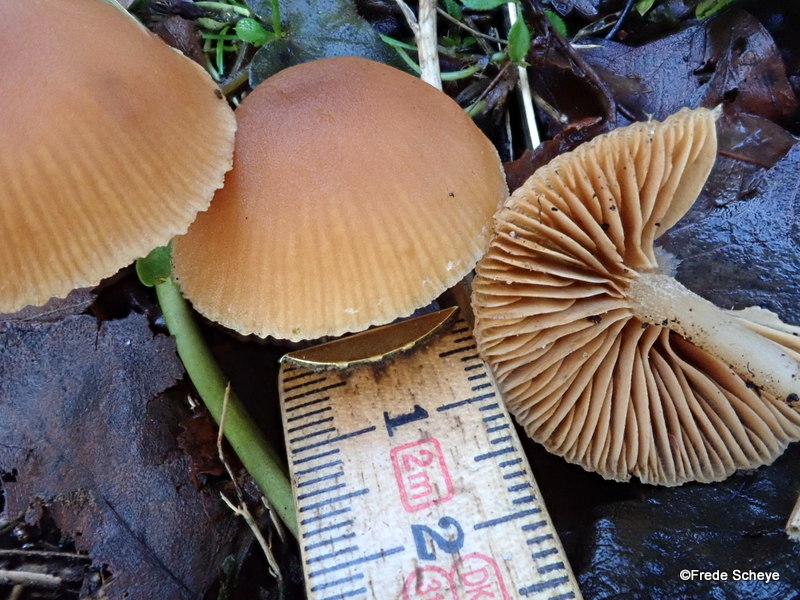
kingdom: Fungi
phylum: Basidiomycota
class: Agaricomycetes
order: Agaricales
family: Tubariaceae
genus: Tubaria
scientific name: Tubaria furfuracea
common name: kliddet fnughat
